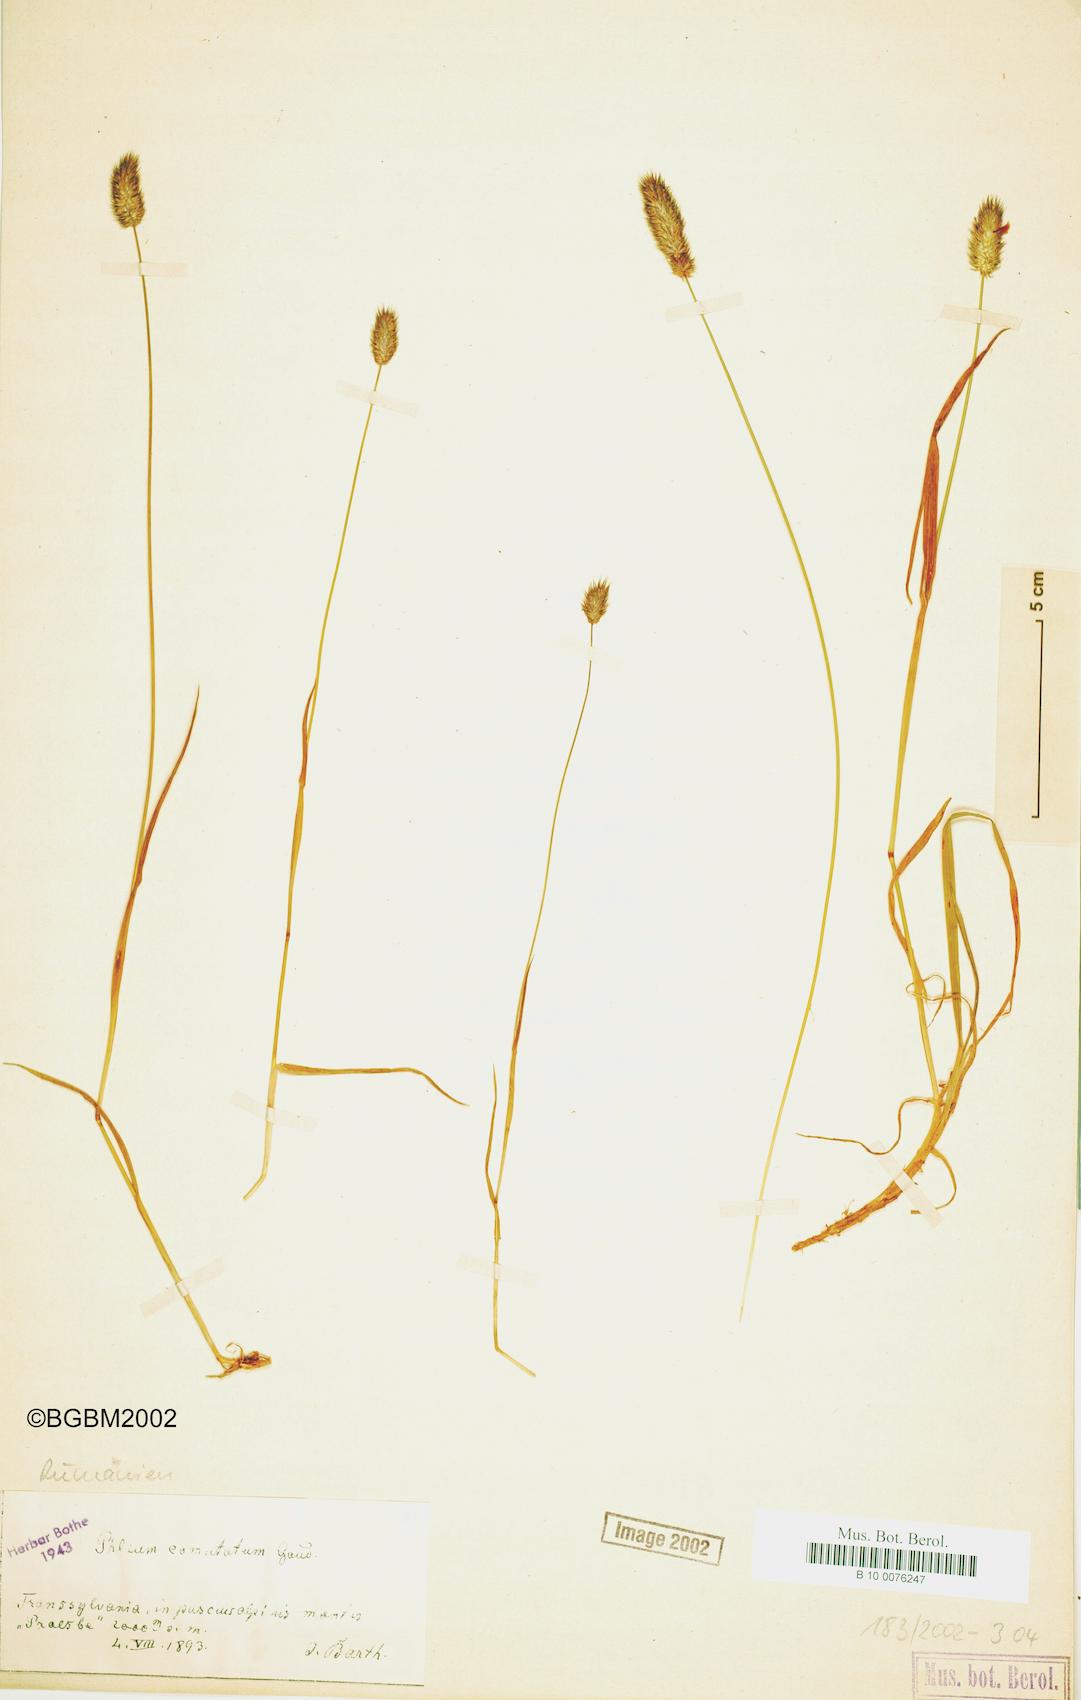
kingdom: Plantae
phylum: Tracheophyta
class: Liliopsida
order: Poales
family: Poaceae
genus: Phleum
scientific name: Phleum alpinum
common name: Alpine cat's-tail
